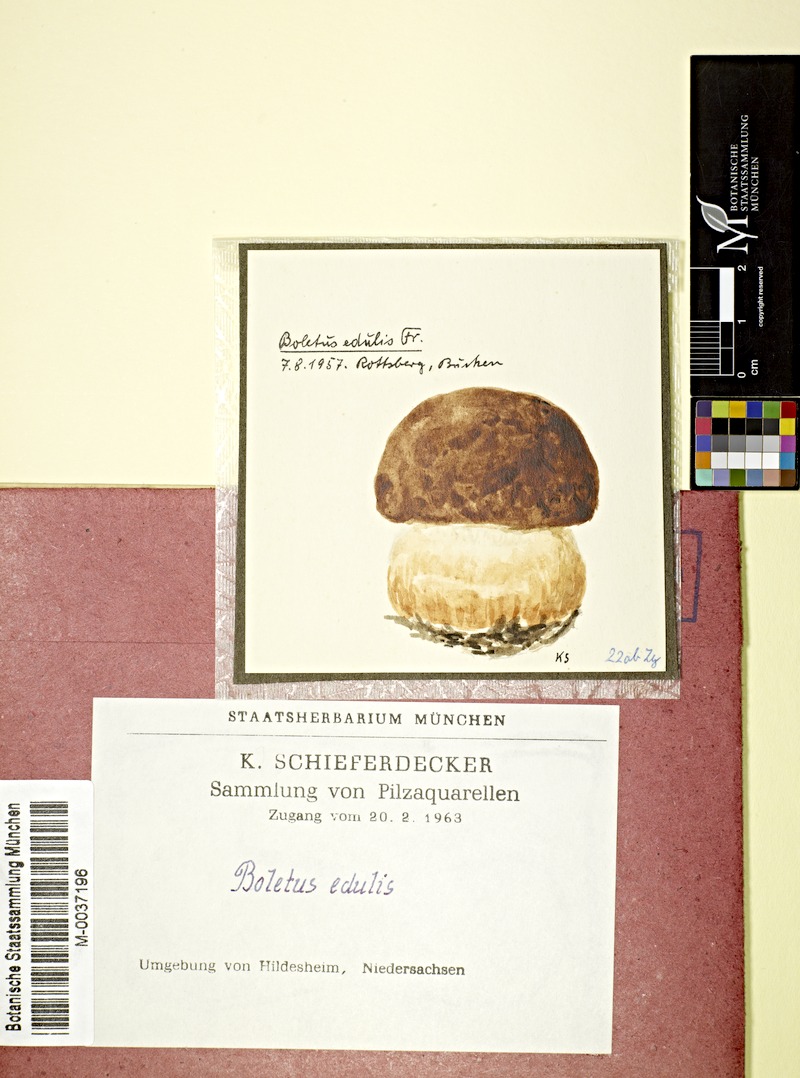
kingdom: Fungi
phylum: Basidiomycota
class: Agaricomycetes
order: Boletales
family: Boletaceae
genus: Boletus
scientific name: Boletus edulis
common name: Cep
